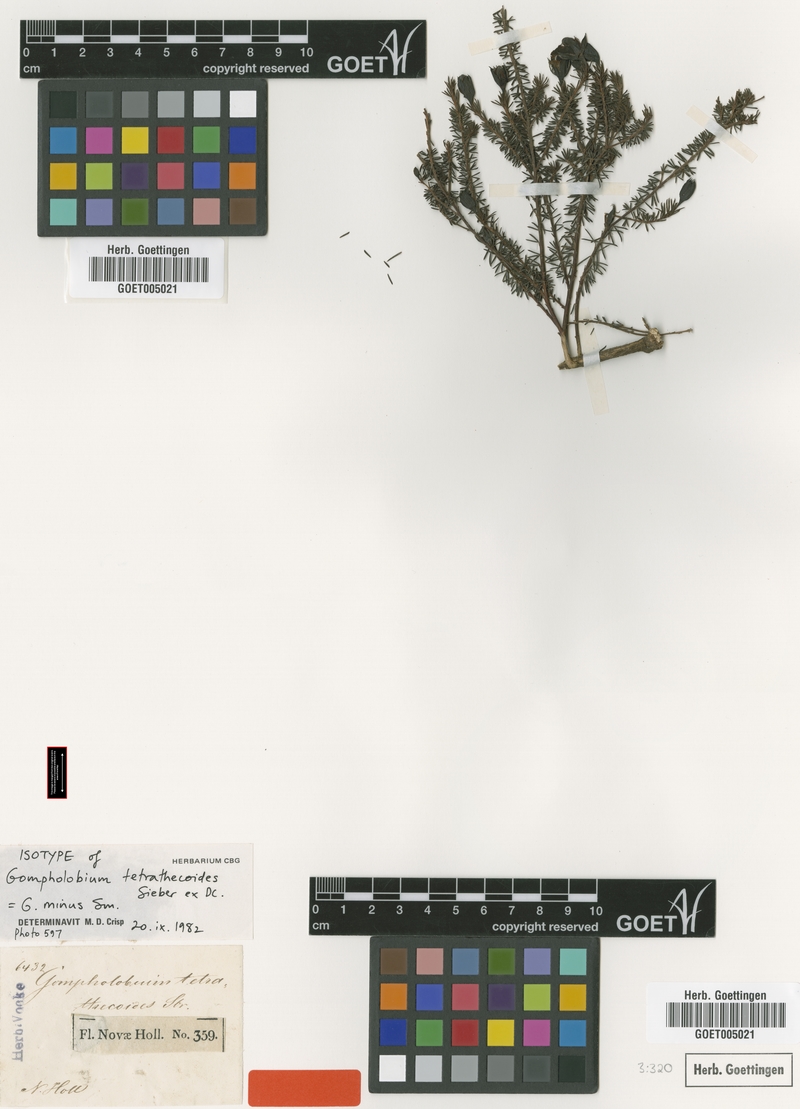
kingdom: Plantae
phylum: Tracheophyta
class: Magnoliopsida
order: Fabales
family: Fabaceae
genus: Gompholobium
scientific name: Gompholobium minus
